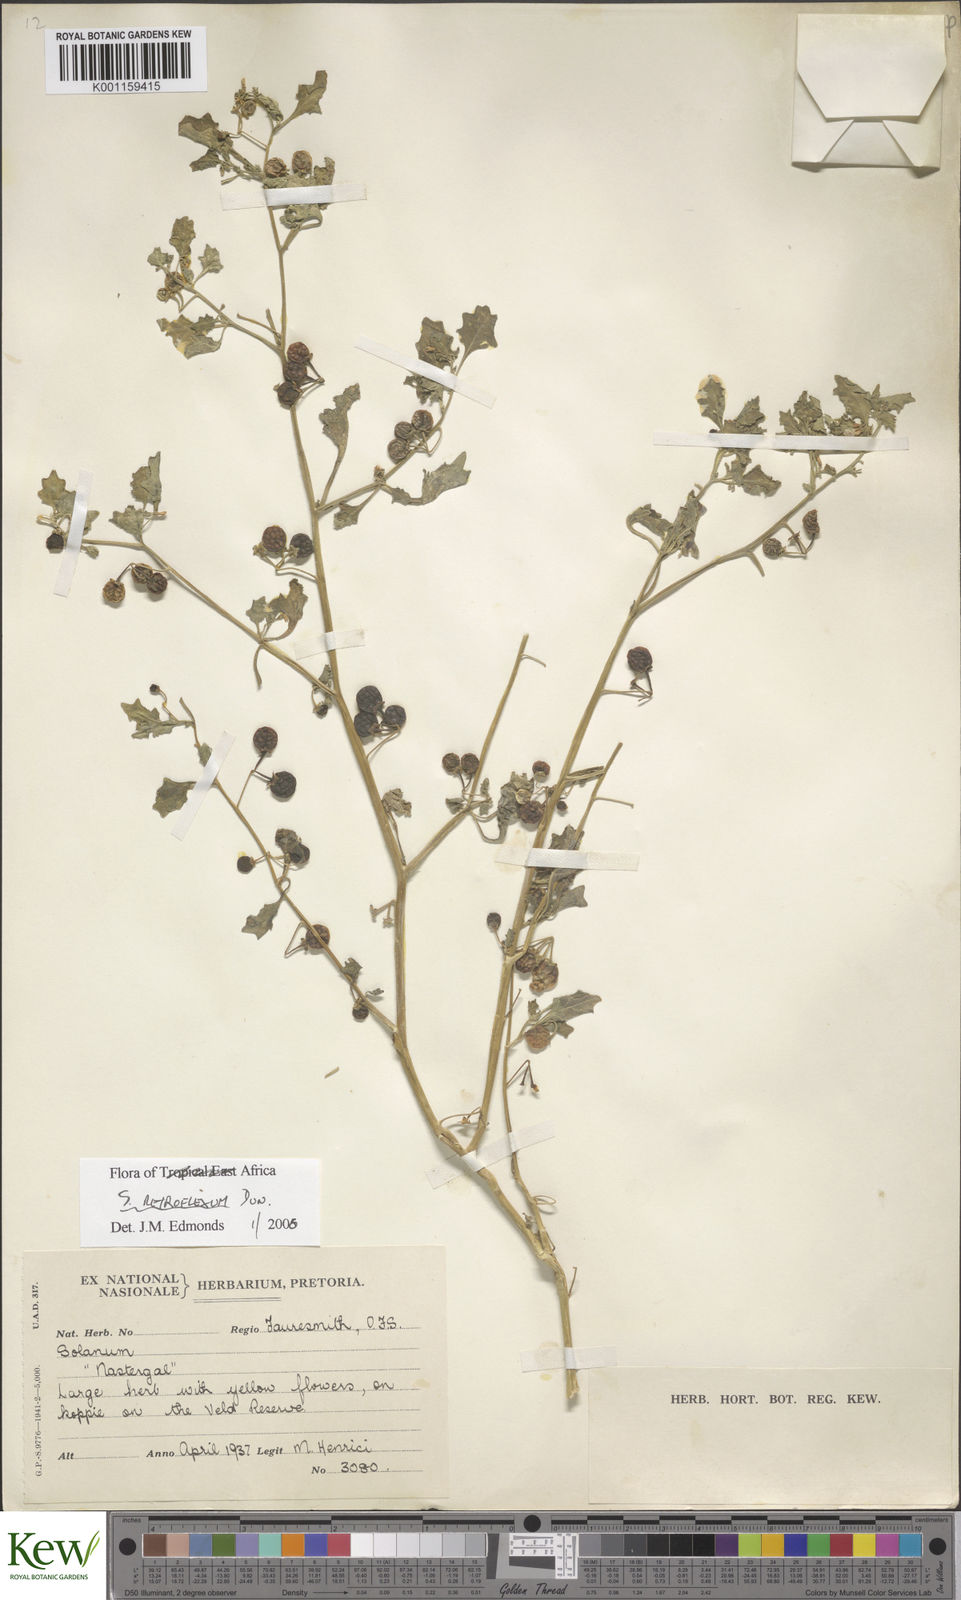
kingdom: Plantae
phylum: Tracheophyta
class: Magnoliopsida
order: Solanales
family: Solanaceae
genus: Solanum
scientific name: Solanum retroflexum
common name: Wonderberry
